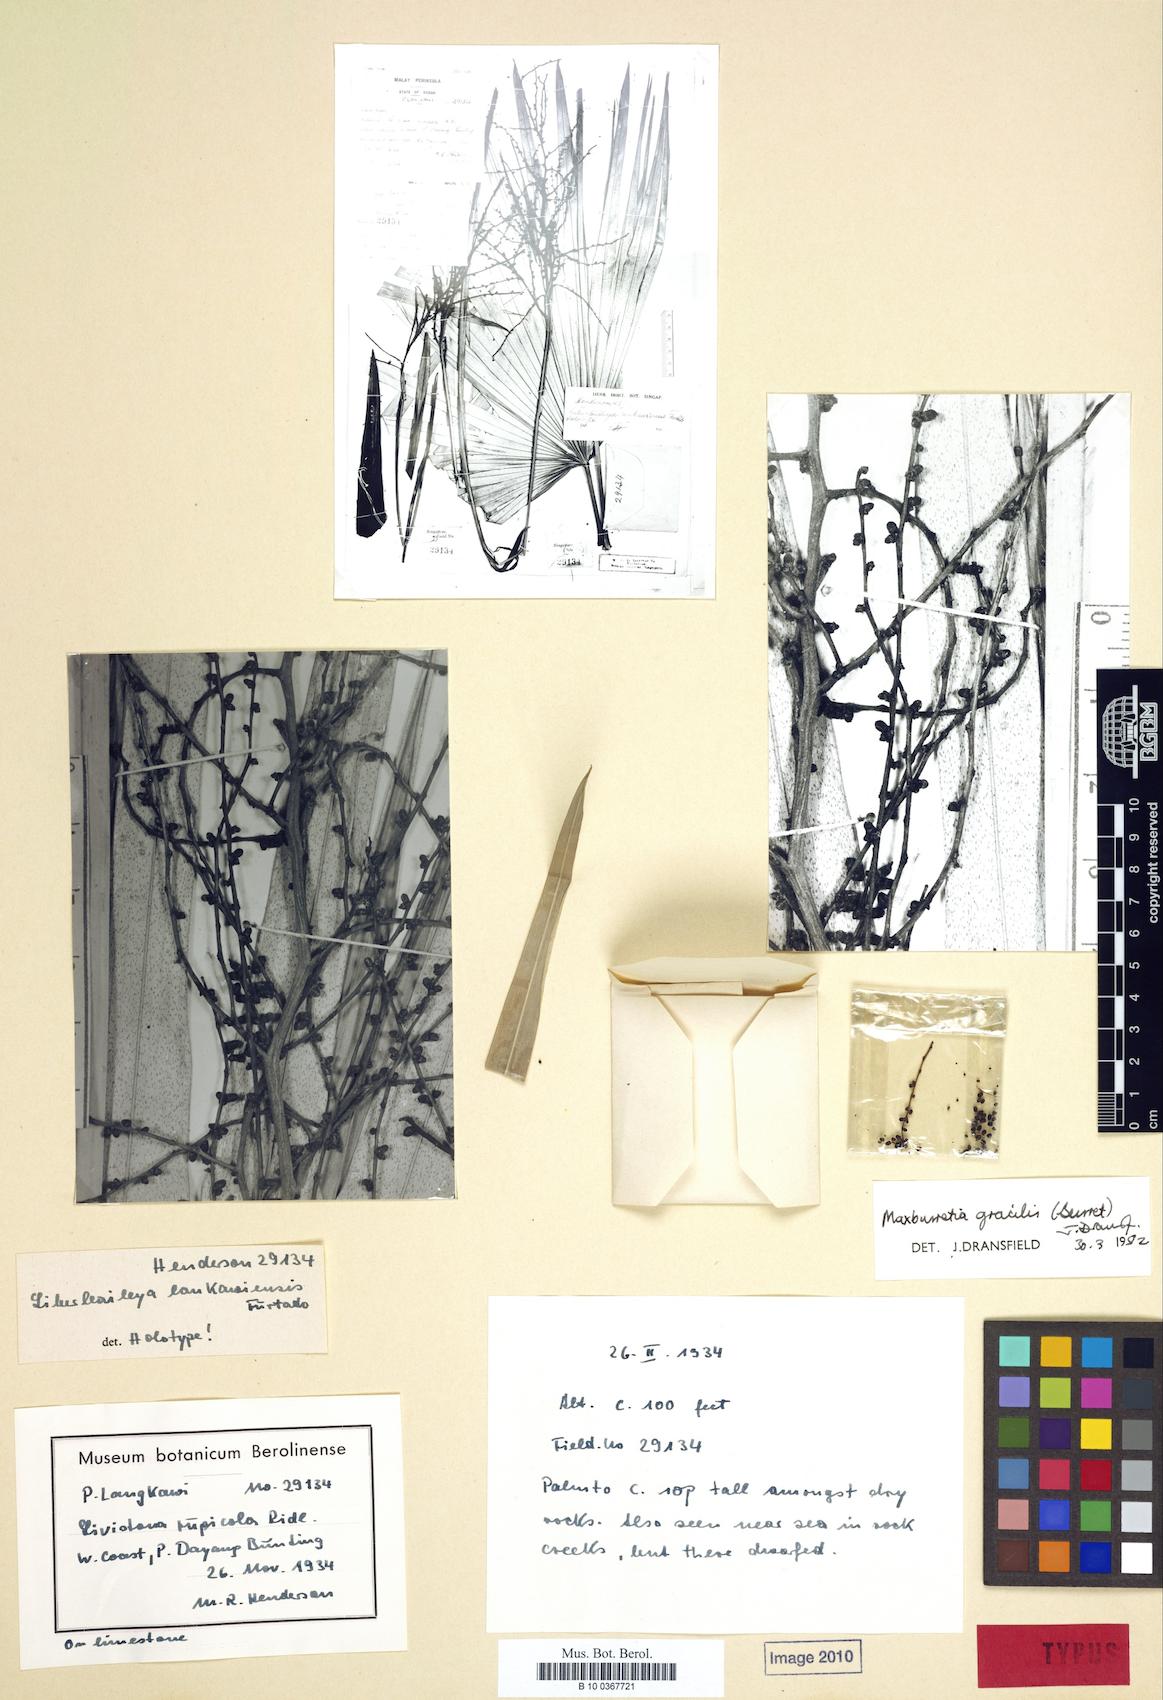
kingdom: Plantae
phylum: Tracheophyta
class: Liliopsida
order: Arecales
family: Arecaceae
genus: Maxburretia
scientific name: Maxburretia gracilis
